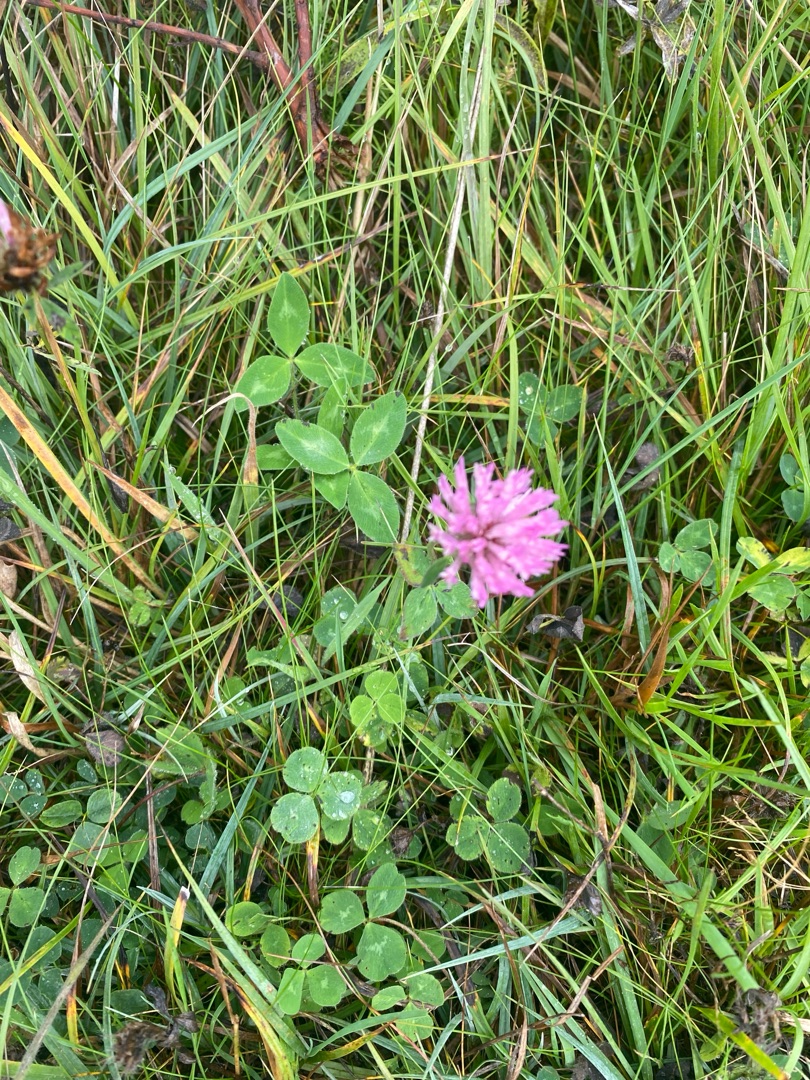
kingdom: Plantae
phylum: Tracheophyta
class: Magnoliopsida
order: Fabales
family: Fabaceae
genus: Trifolium
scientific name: Trifolium pratense
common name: Rød-kløver
